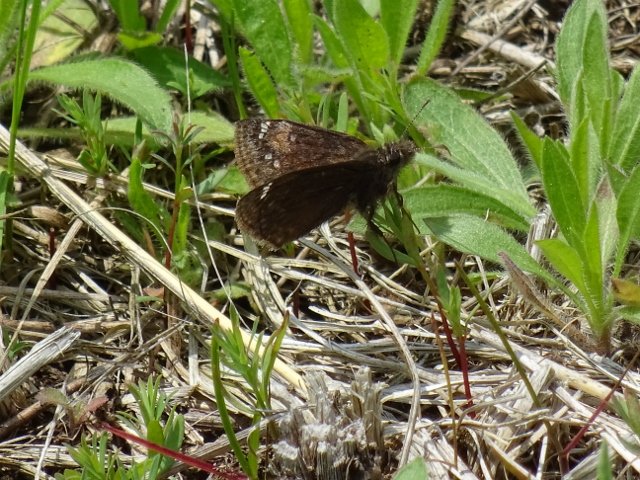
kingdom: Animalia
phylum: Arthropoda
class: Insecta
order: Lepidoptera
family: Hesperiidae
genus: Gesta
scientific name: Gesta
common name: Juvenal's Duskywing
